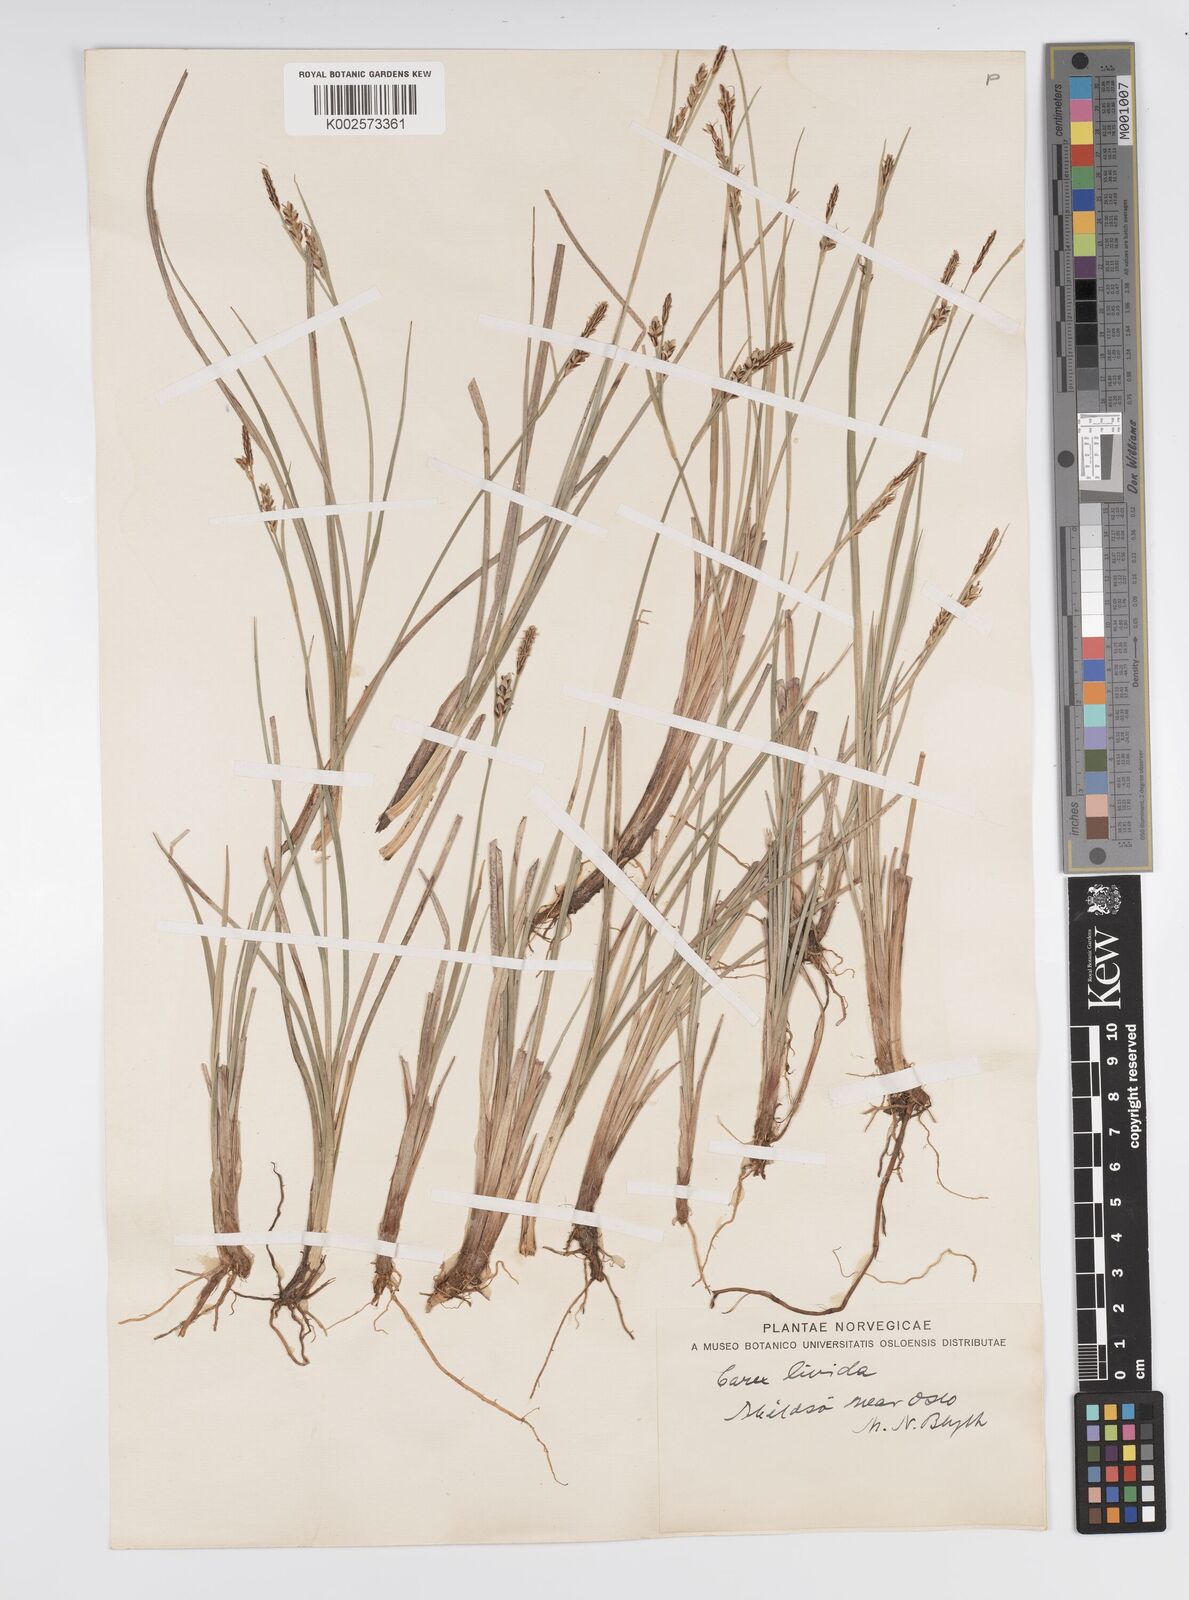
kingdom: Plantae
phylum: Tracheophyta
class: Liliopsida
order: Poales
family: Cyperaceae
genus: Carex
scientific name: Carex livida
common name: Livid sedge
